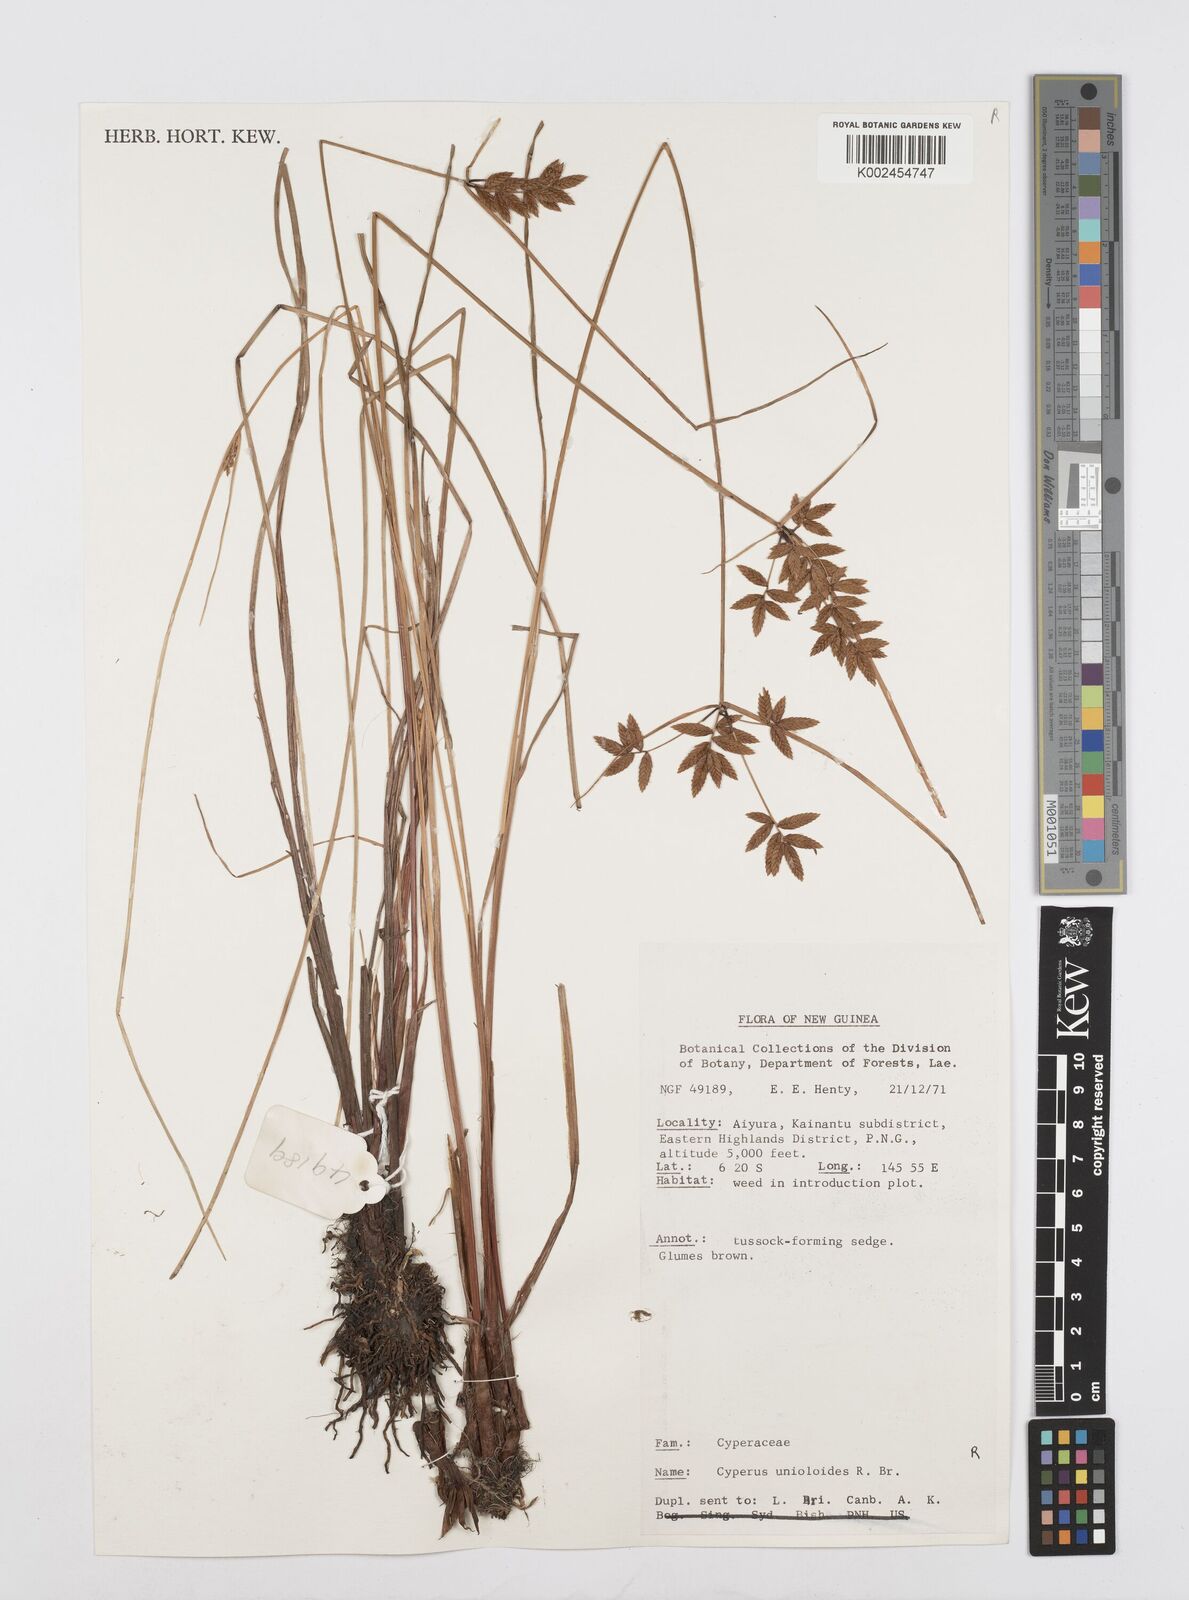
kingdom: Plantae
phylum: Tracheophyta
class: Liliopsida
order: Poales
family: Cyperaceae
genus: Cyperus
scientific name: Cyperus unioloides
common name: Uniola flatsedge
